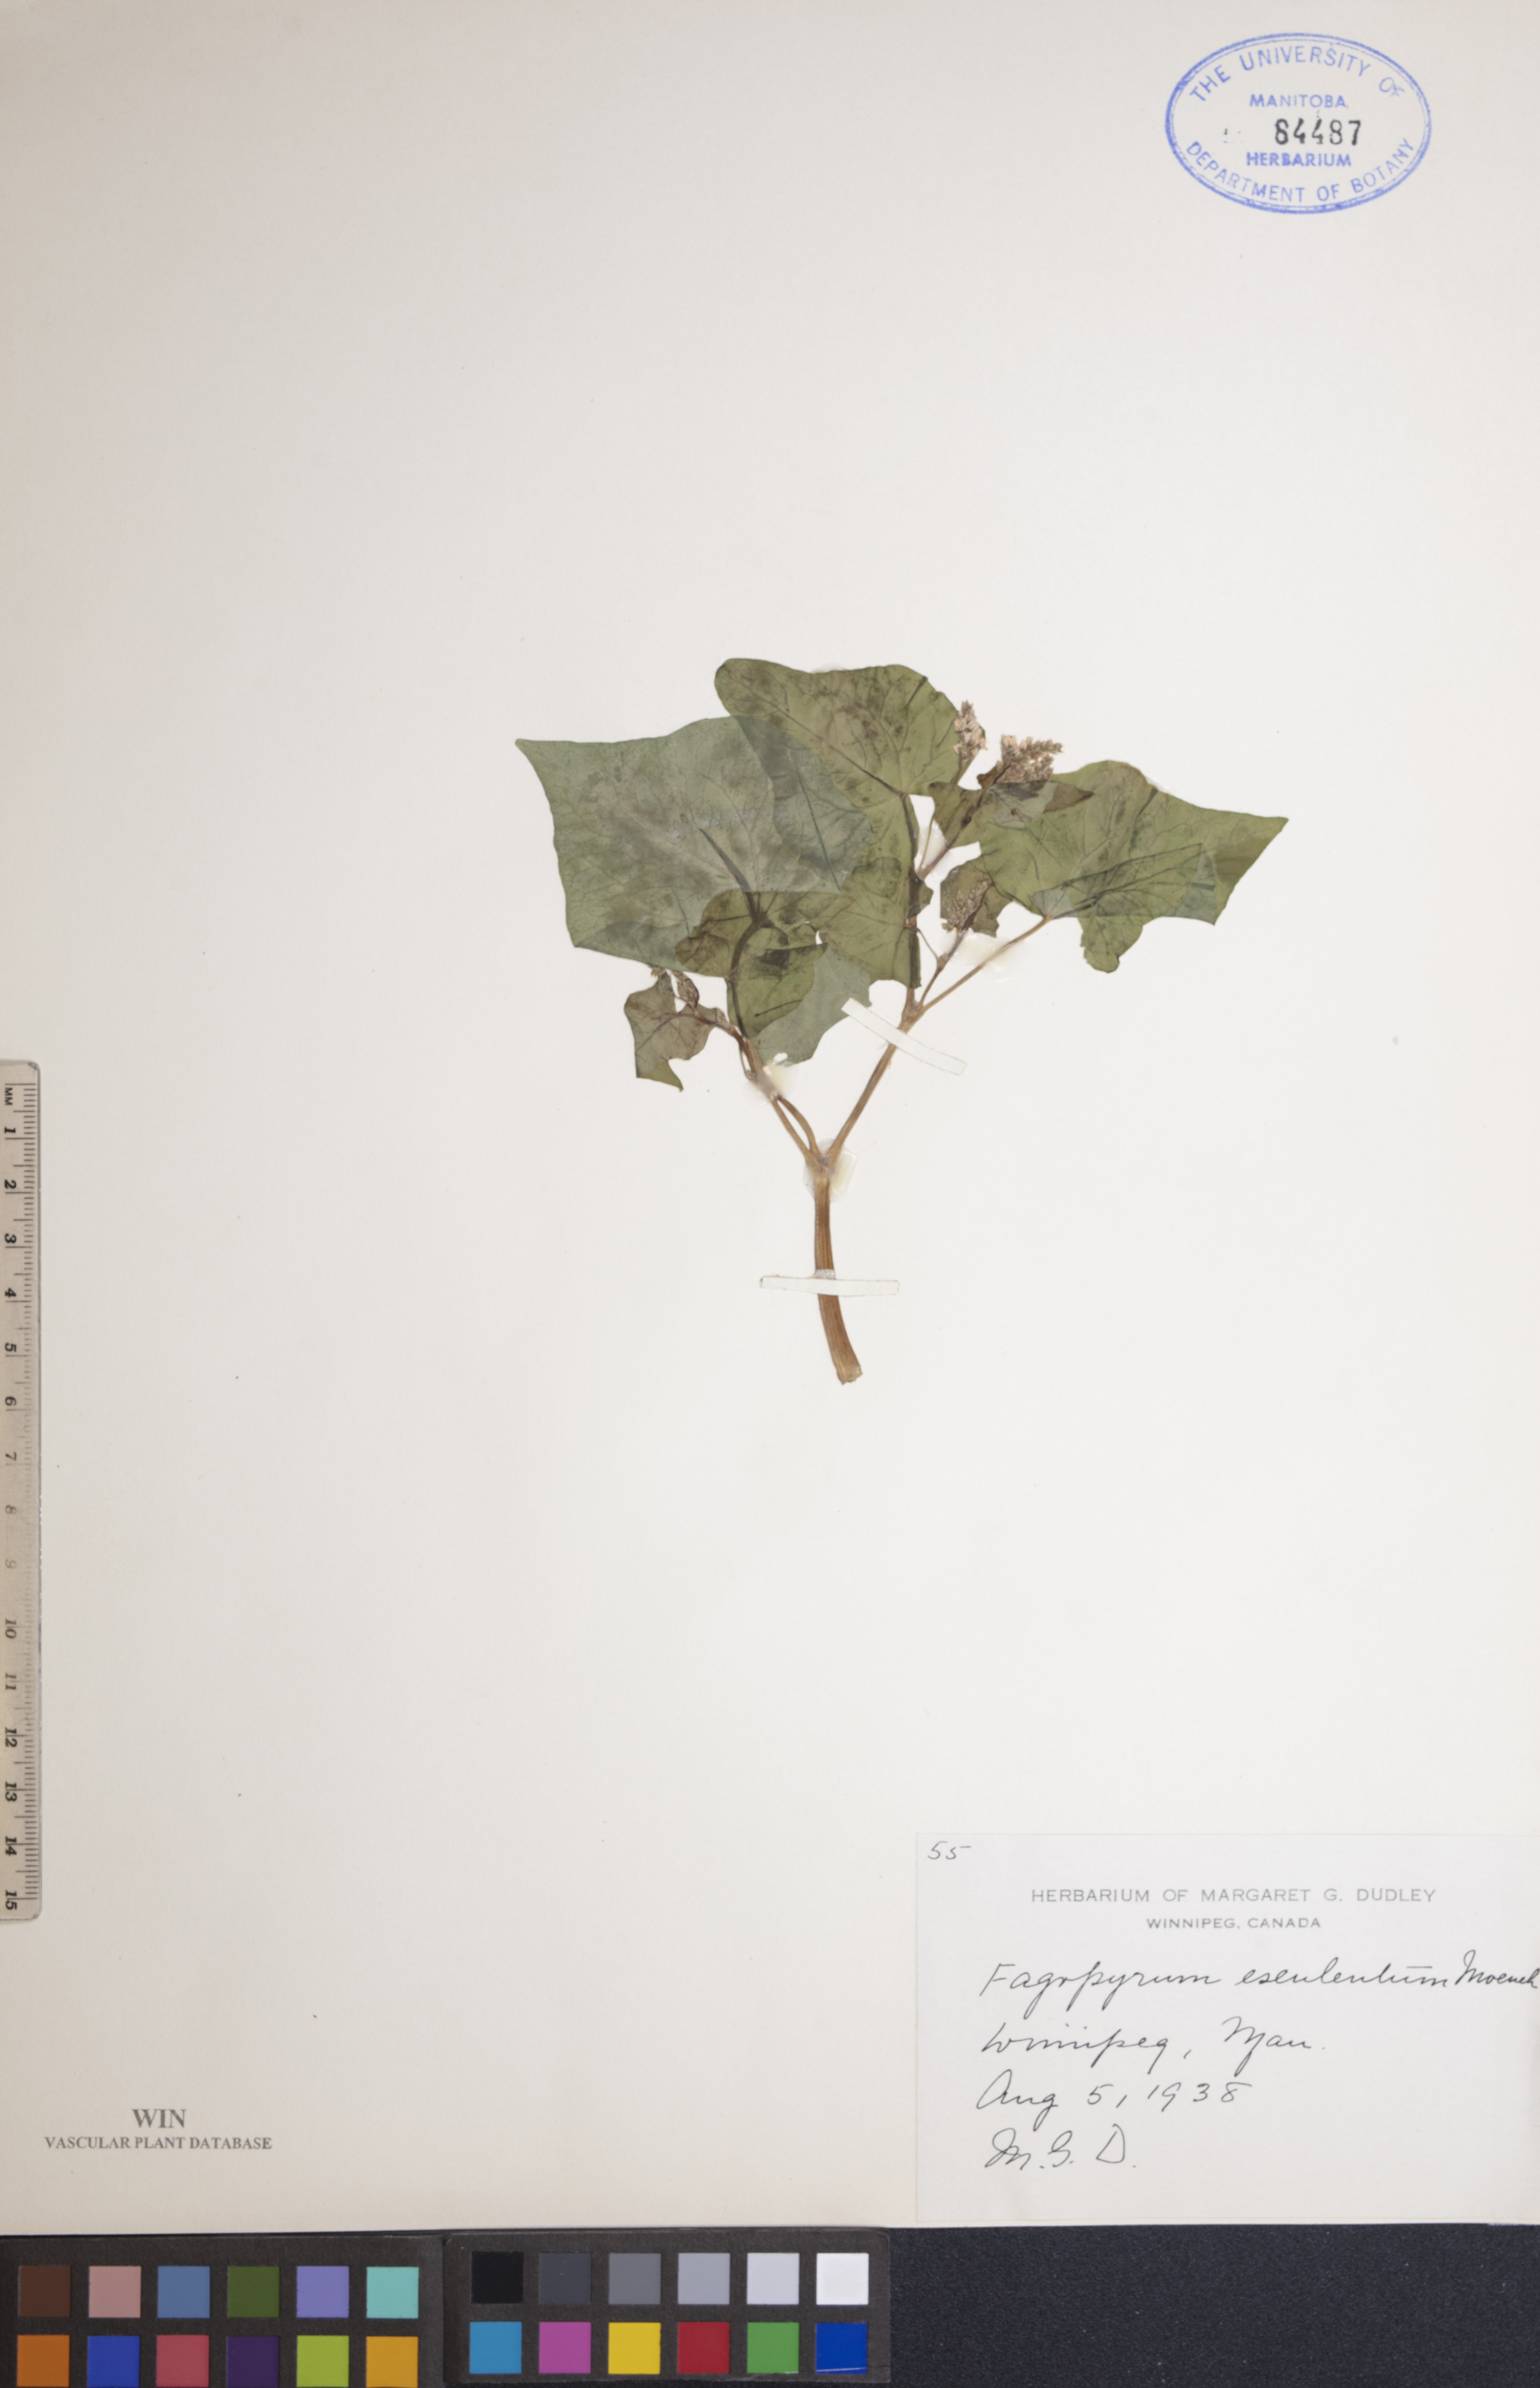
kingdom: Plantae
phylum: Tracheophyta
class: Magnoliopsida
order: Caryophyllales
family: Polygonaceae
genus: Fagopyrum
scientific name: Fagopyrum esculentum
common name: Buckwheat
